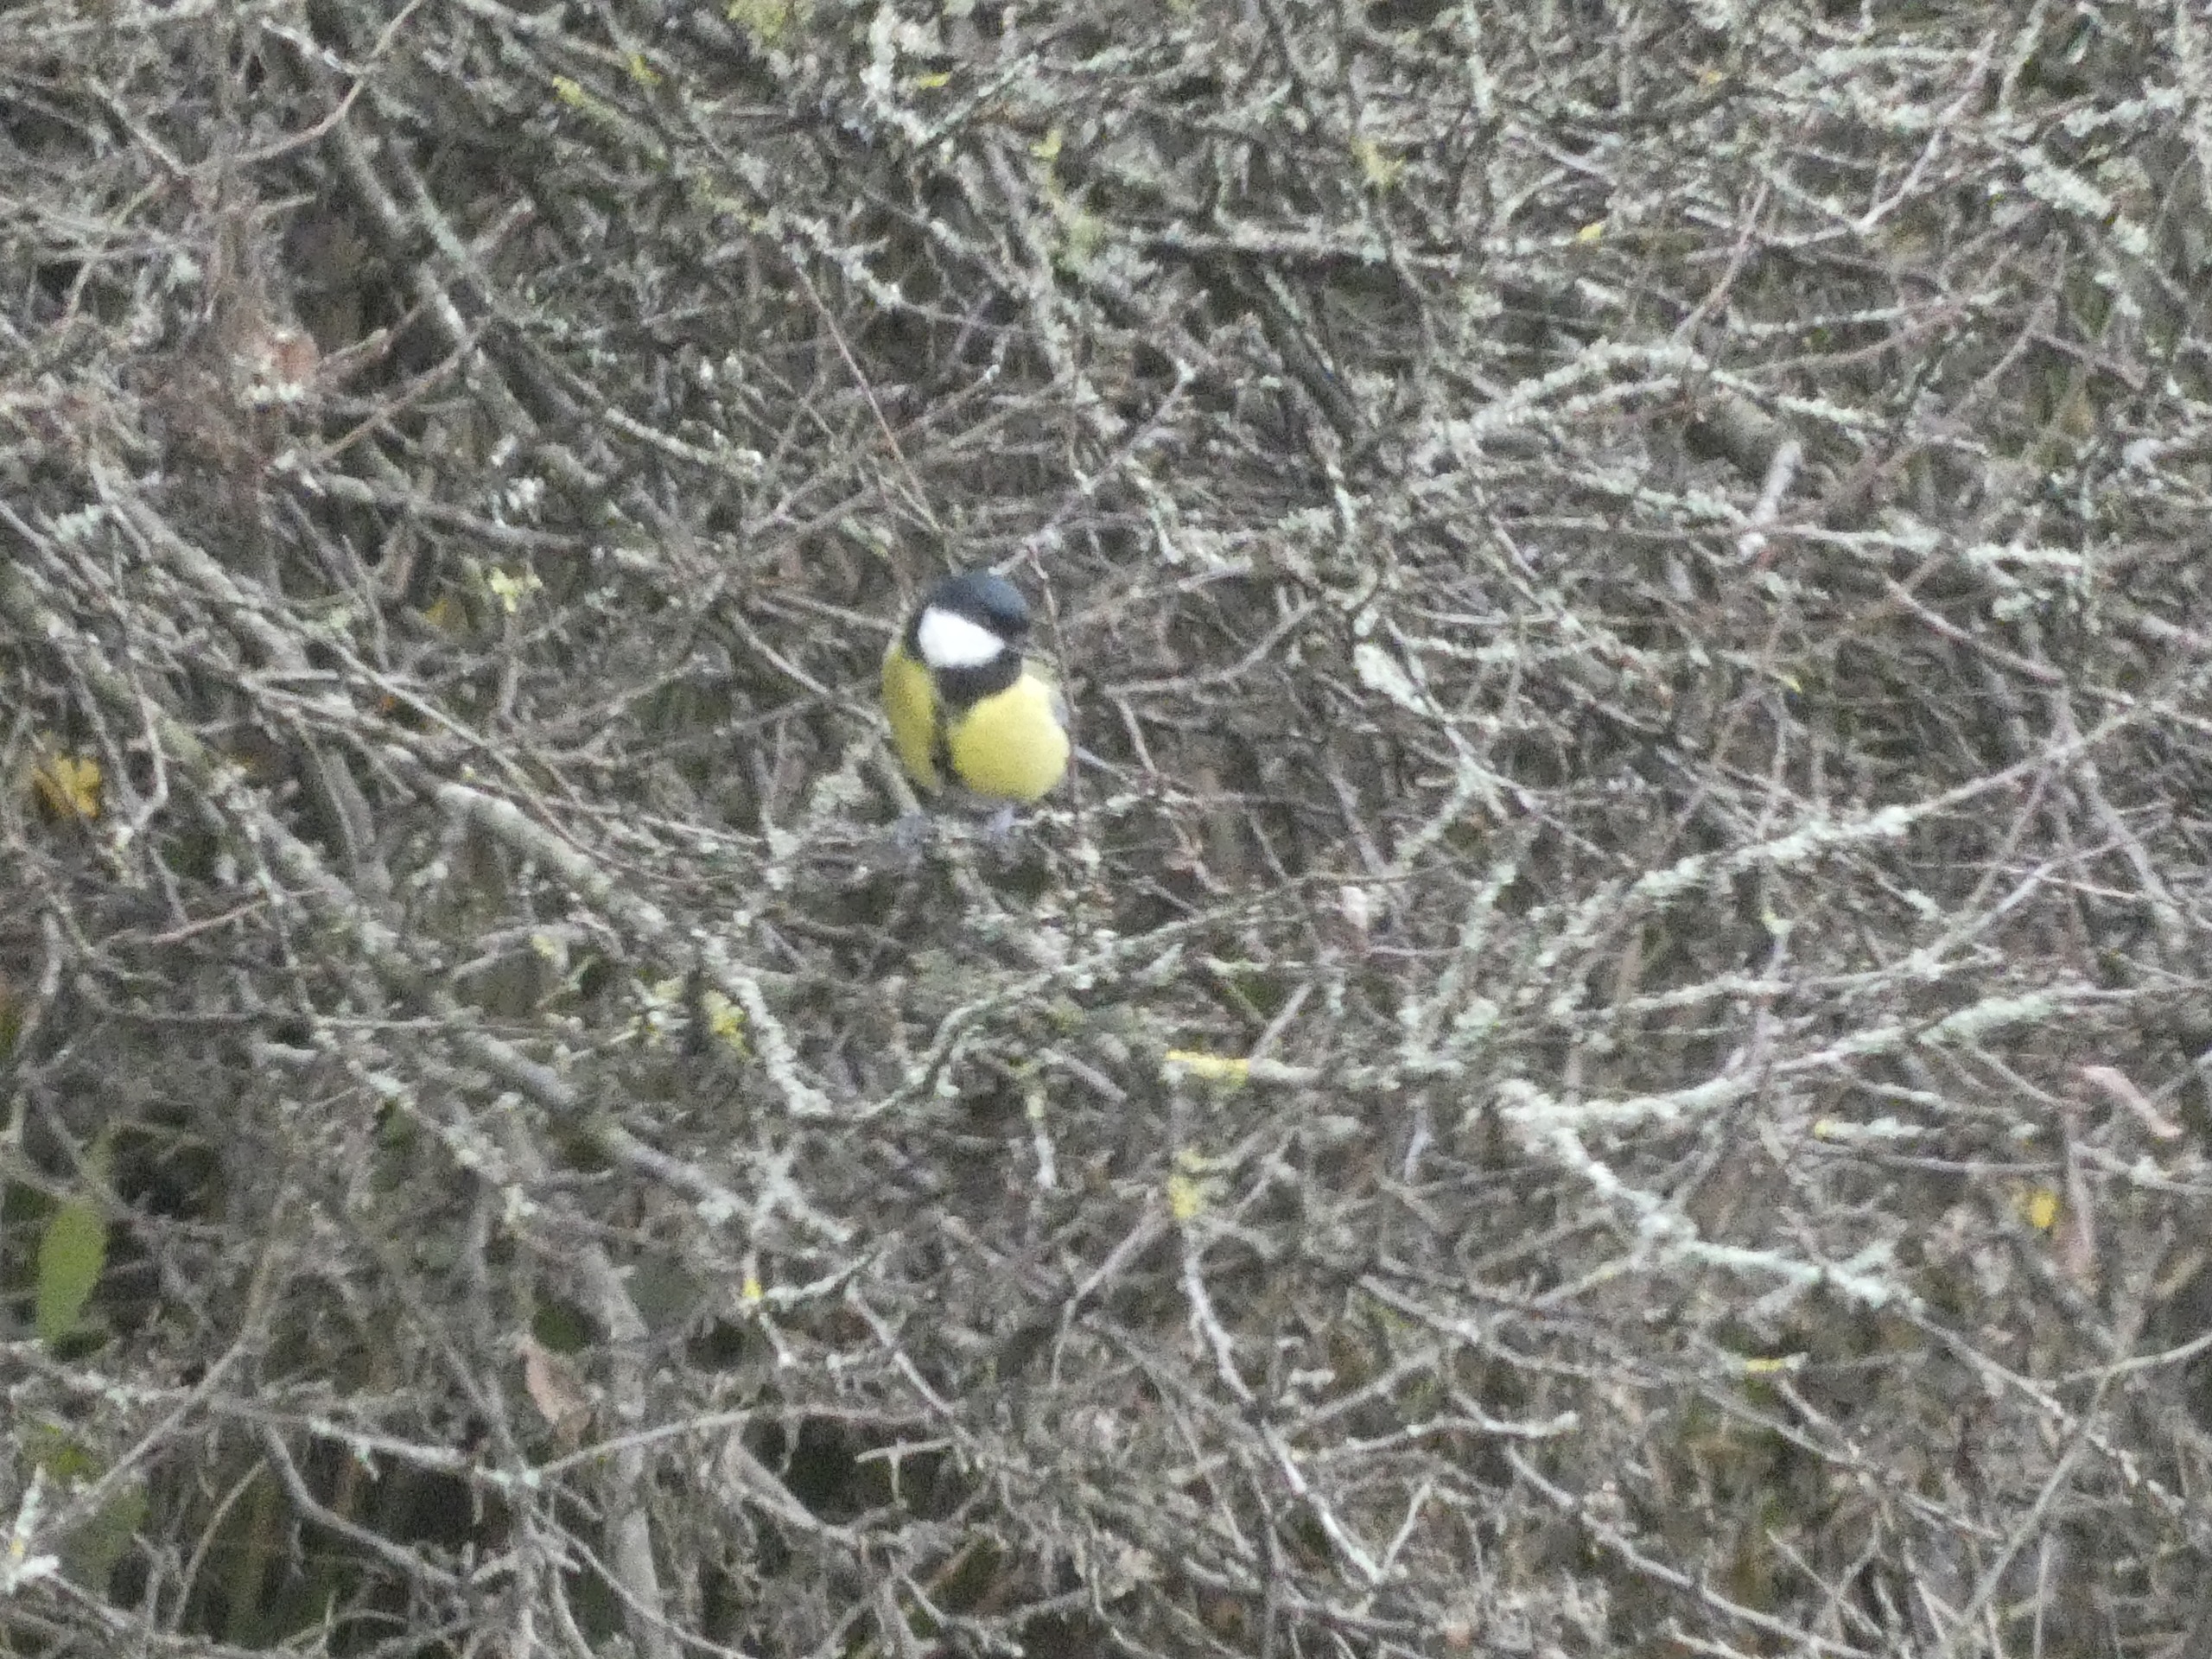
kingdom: Animalia
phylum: Chordata
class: Aves
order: Passeriformes
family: Paridae
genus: Parus
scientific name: Parus major
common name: Musvit
